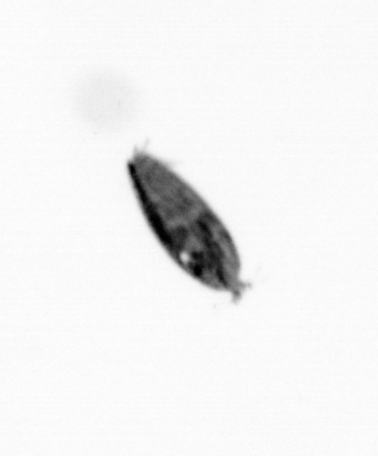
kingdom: Animalia
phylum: Arthropoda
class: Maxillopoda
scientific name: Maxillopoda
